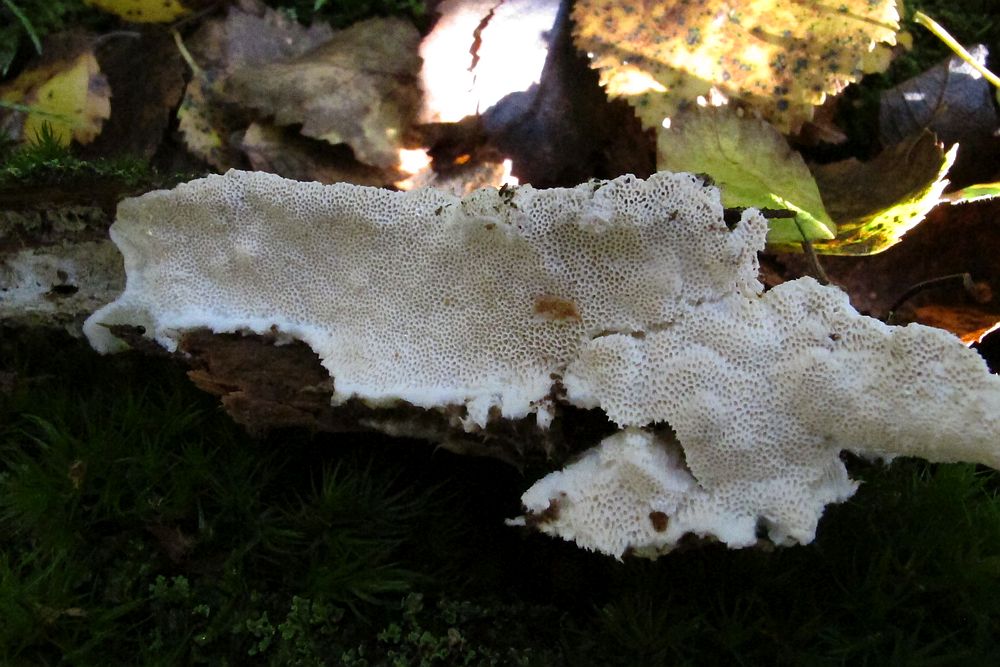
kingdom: Fungi
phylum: Basidiomycota
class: Agaricomycetes
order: Polyporales
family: Gelatoporiaceae
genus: Cinereomyces
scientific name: Cinereomyces lindbladii
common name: almindelig gråporesvamp
